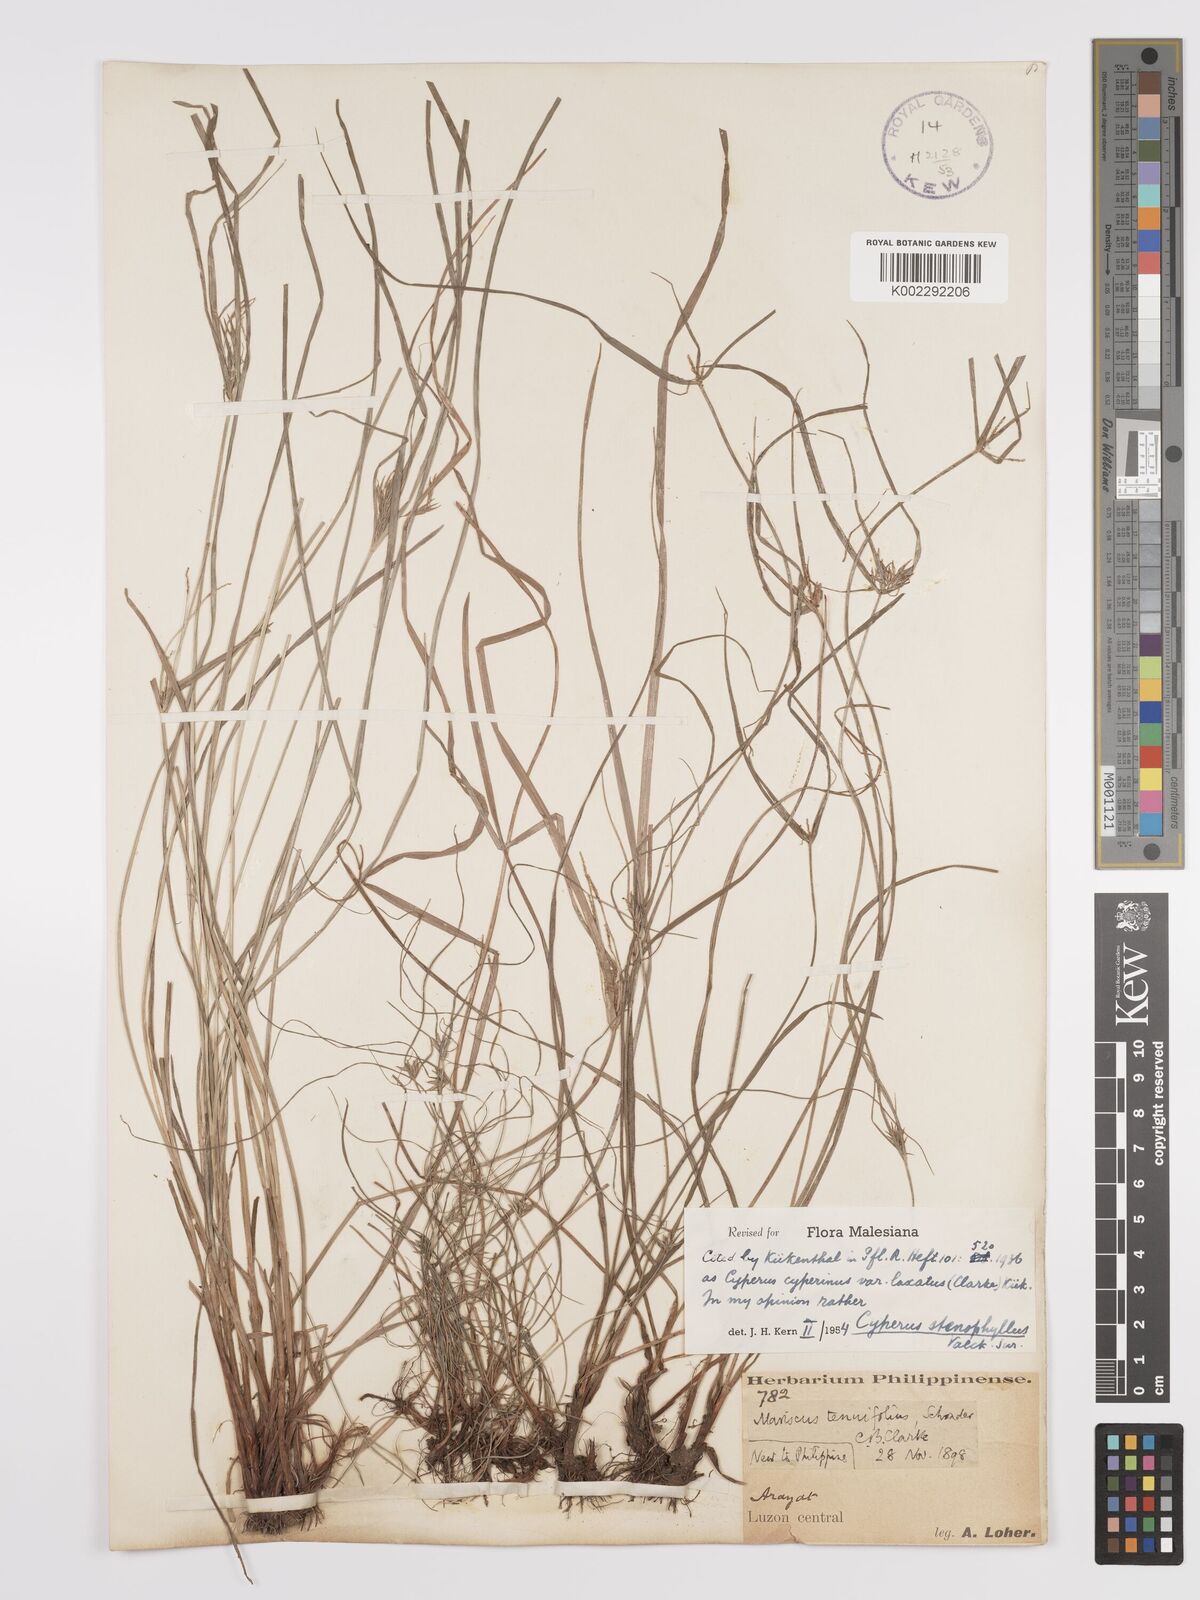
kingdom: Plantae
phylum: Tracheophyta
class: Liliopsida
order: Poales
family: Cyperaceae
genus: Cyperus
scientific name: Cyperus stenophyllus
